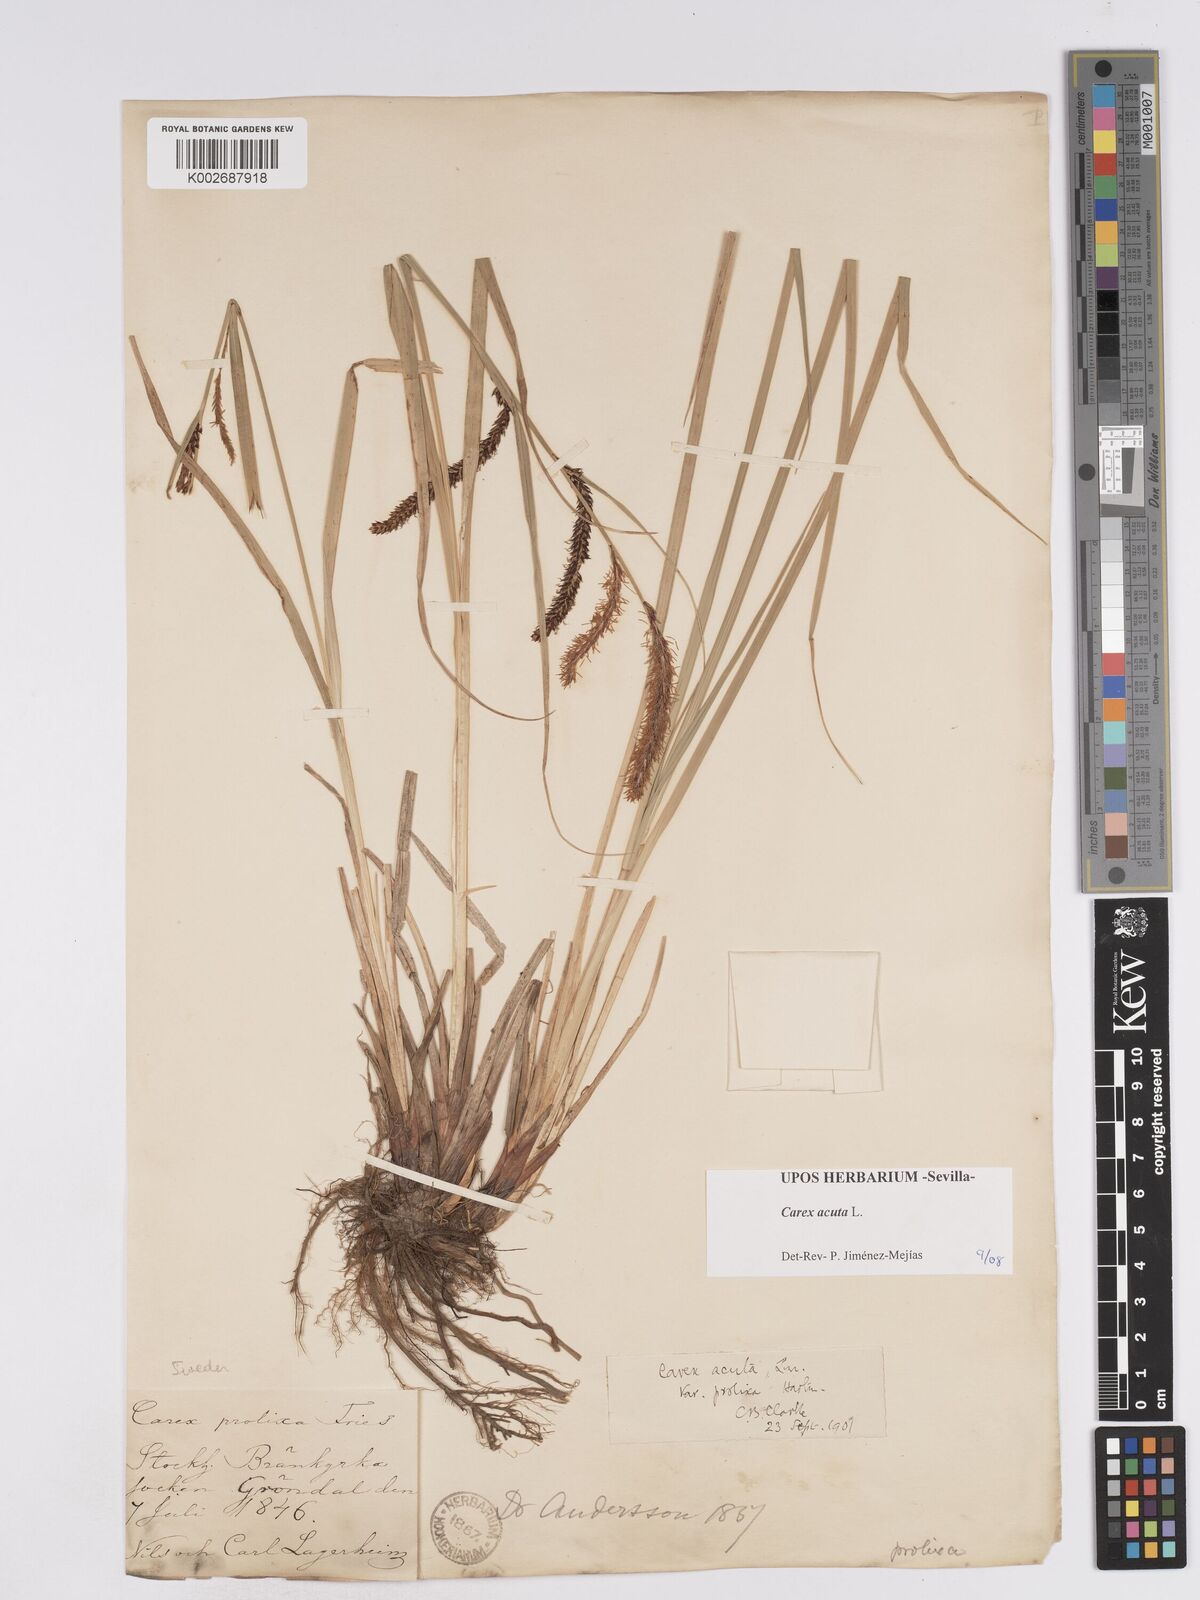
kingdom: Plantae
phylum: Tracheophyta
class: Liliopsida
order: Poales
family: Cyperaceae
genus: Carex
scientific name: Carex acuta
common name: Slender tufted-sedge
